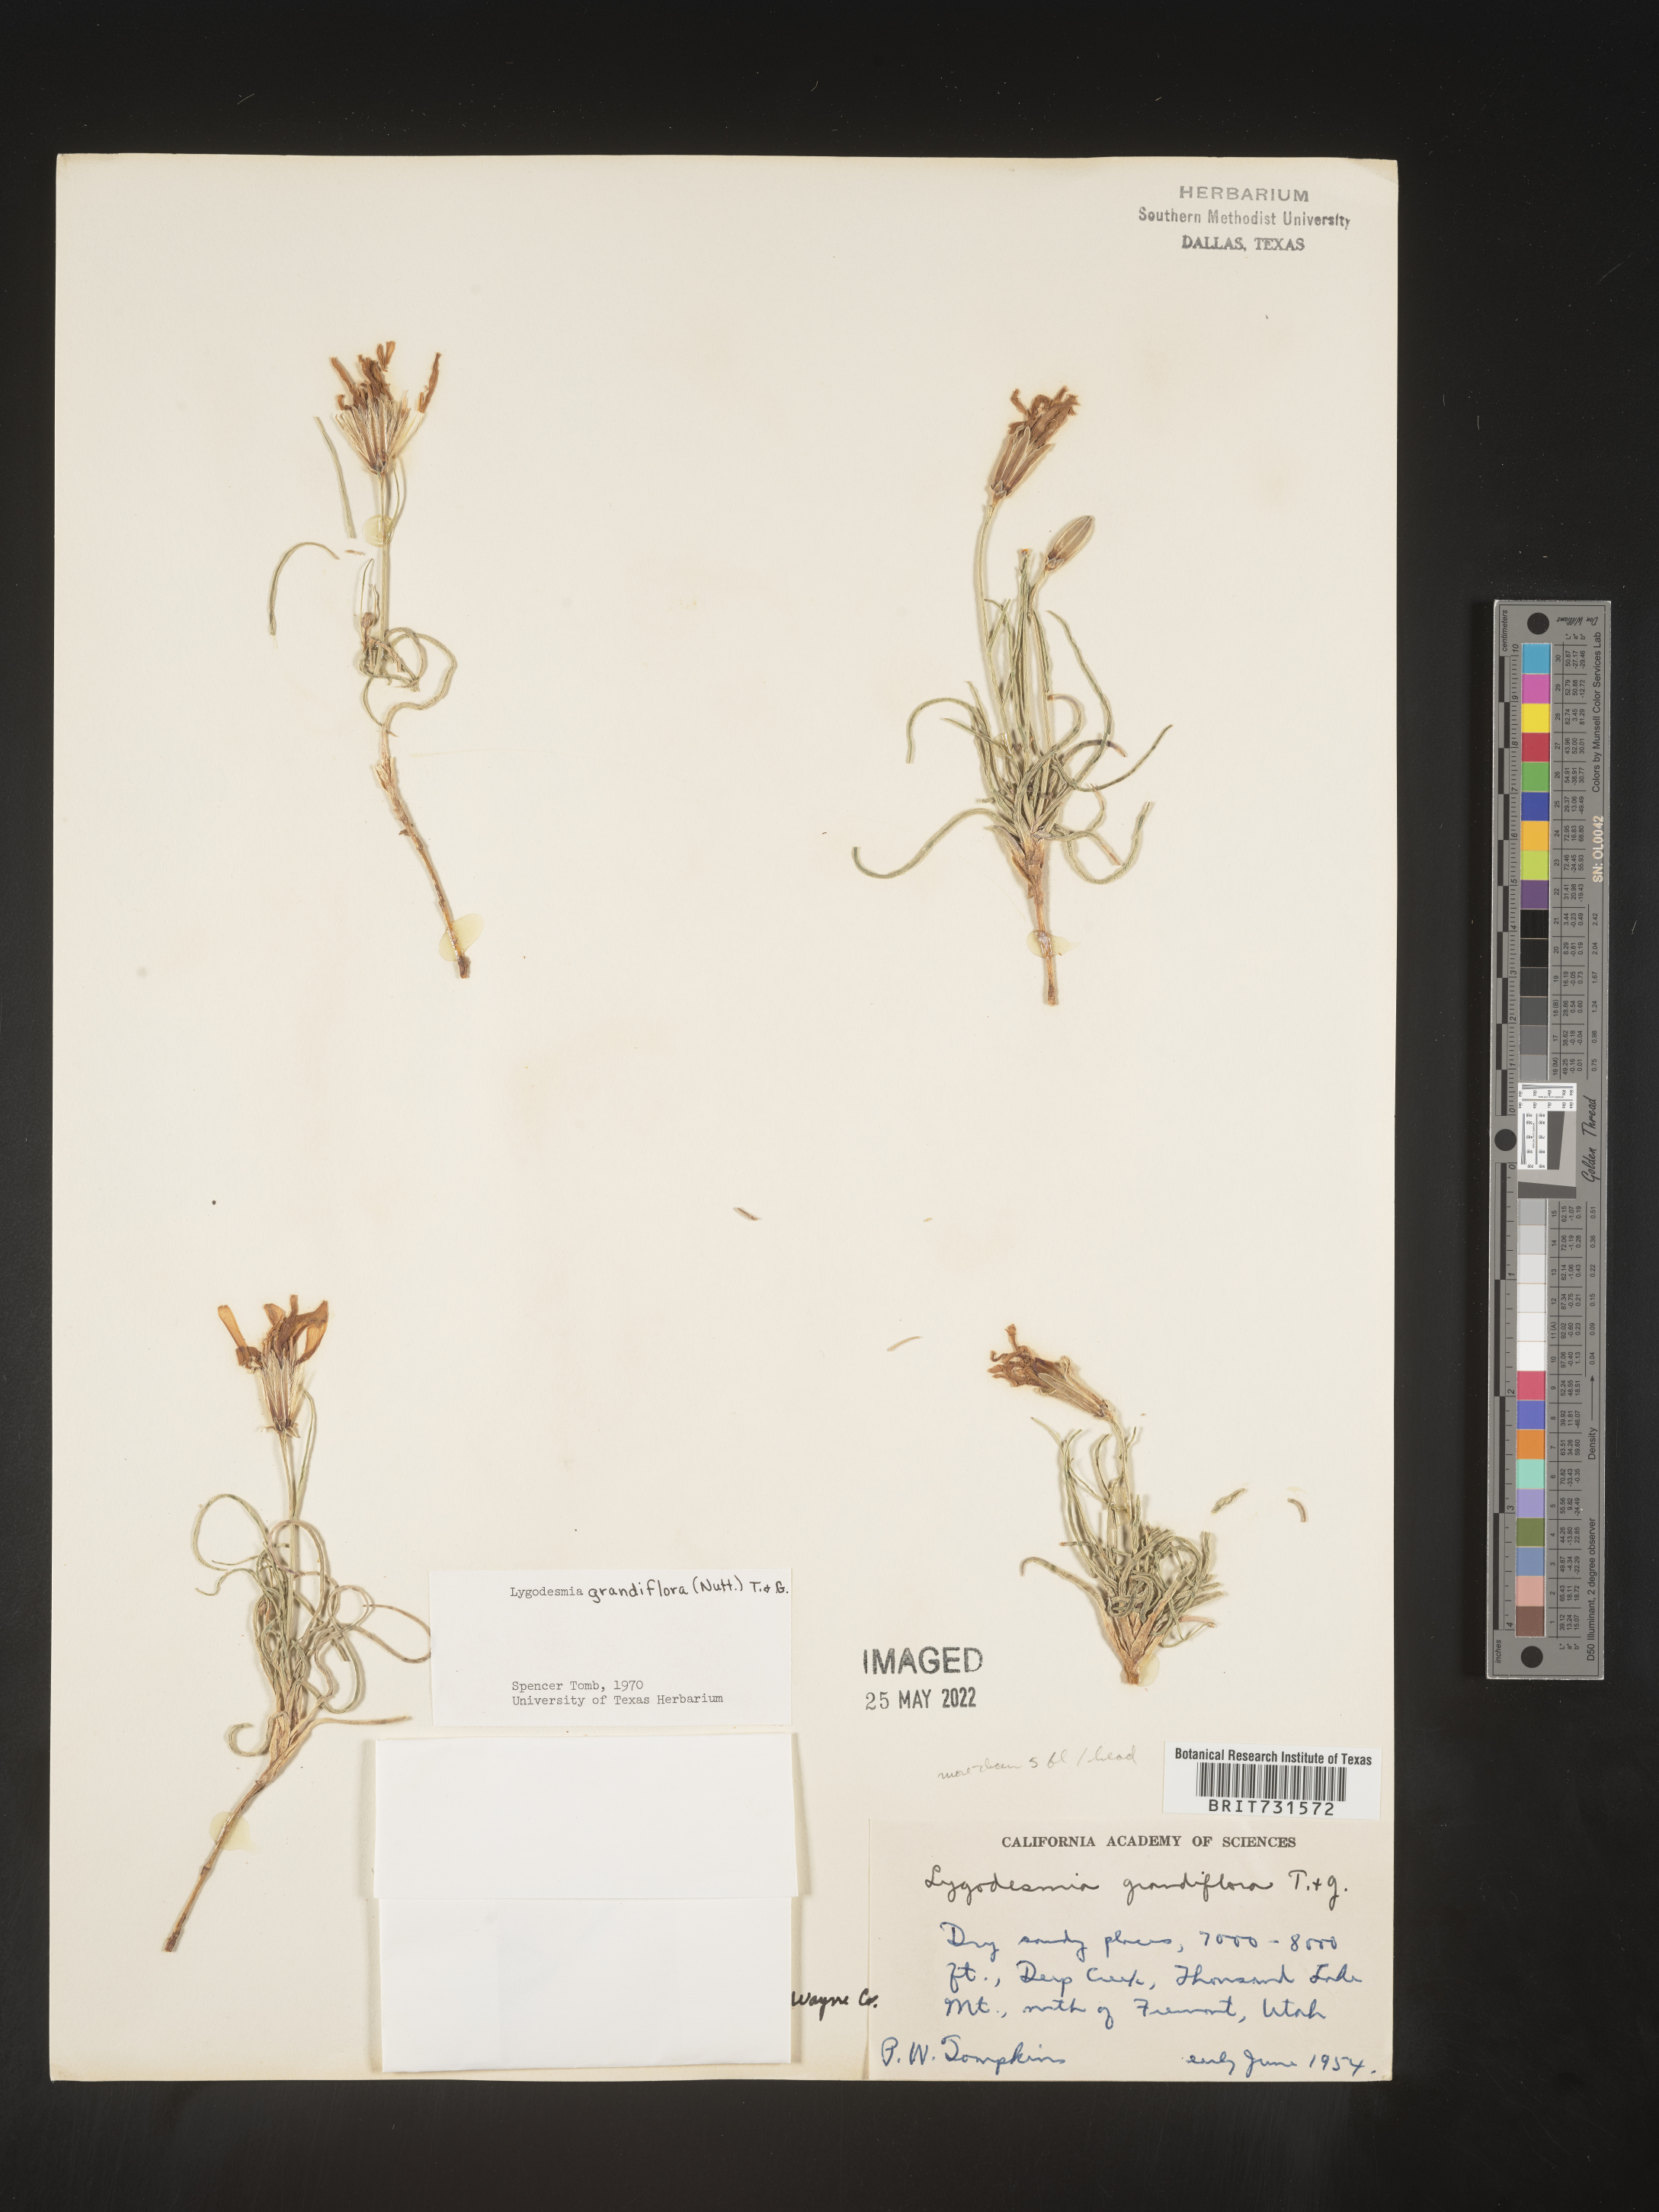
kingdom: Plantae
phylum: Tracheophyta
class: Magnoliopsida
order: Asterales
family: Asteraceae
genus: Lygodesmia
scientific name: Lygodesmia grandiflora
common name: Showy rush-pink
